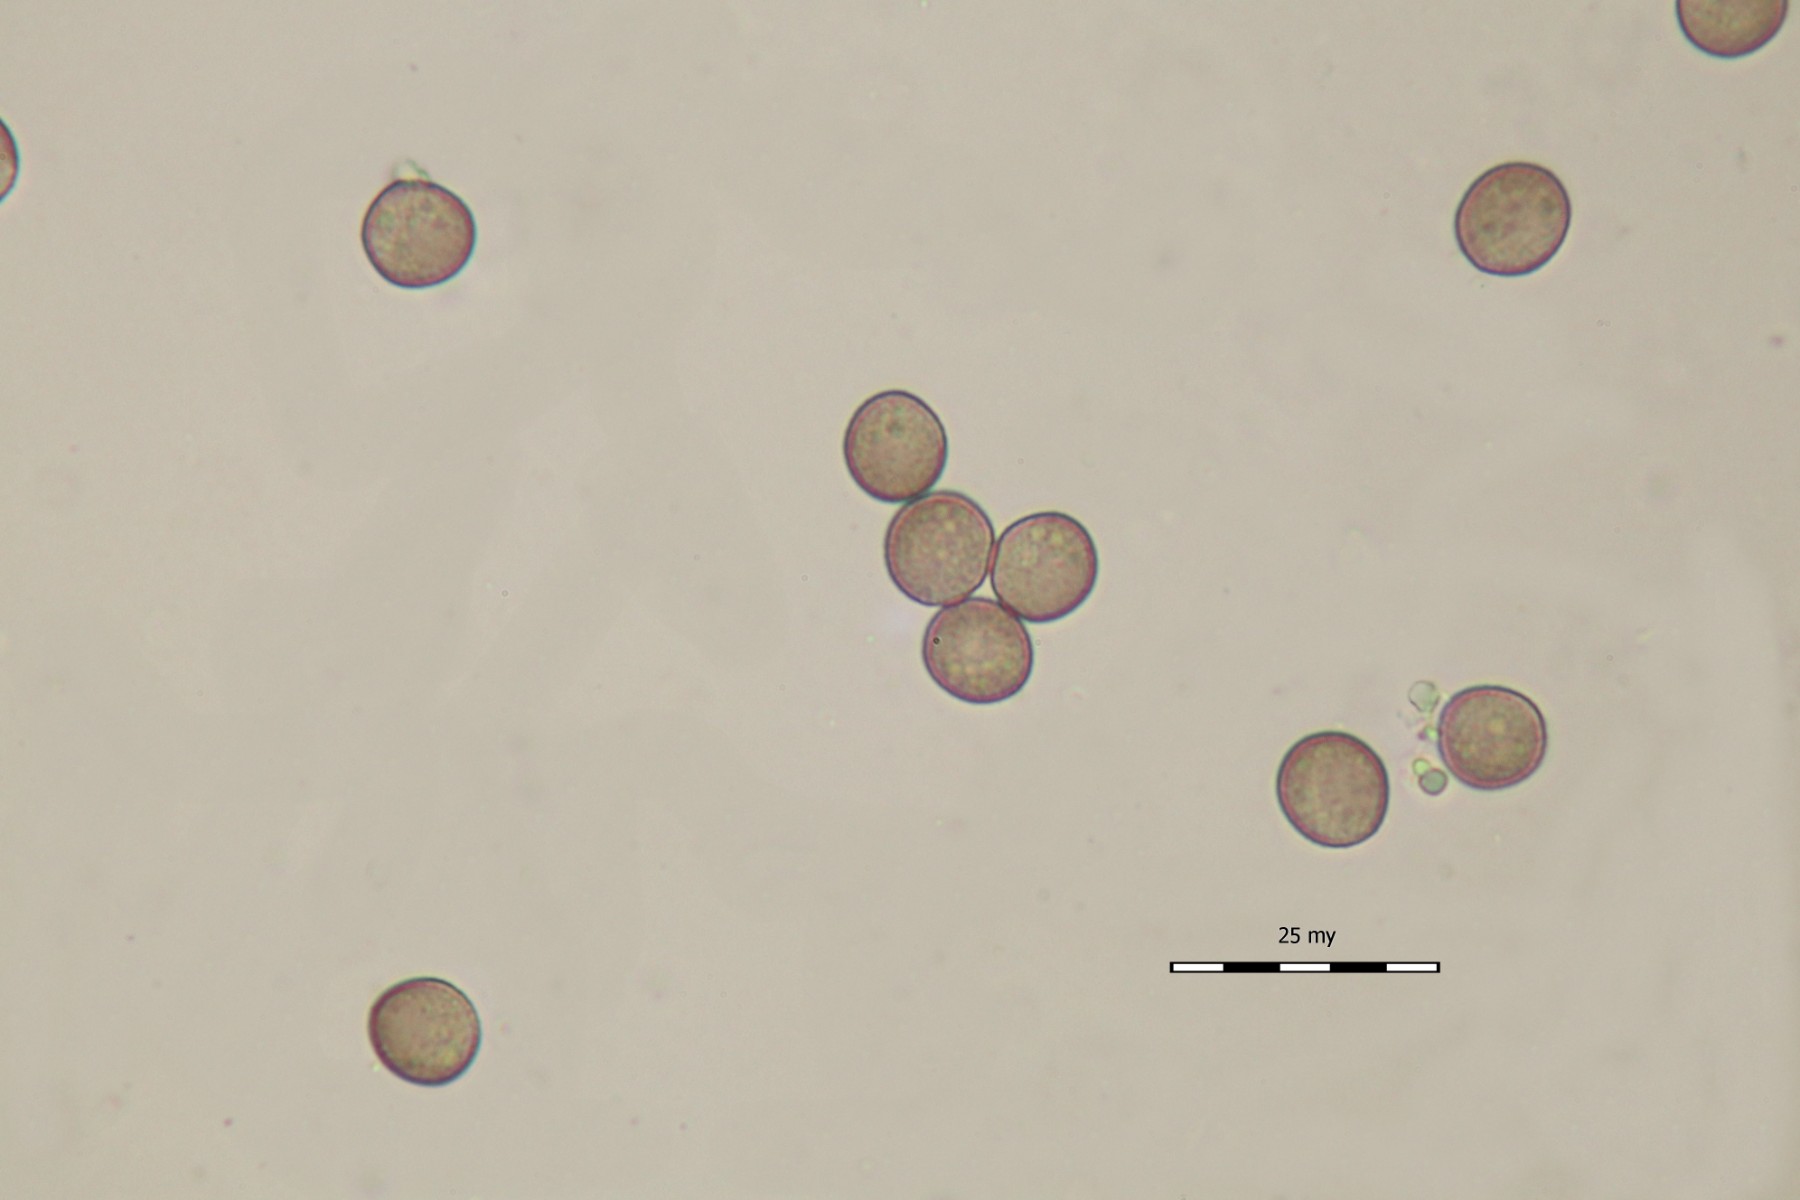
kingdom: Protozoa
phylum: Mycetozoa
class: Myxomycetes
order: Stemonitidales
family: Stemonitidaceae
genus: Comatricha
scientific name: Comatricha nigra
